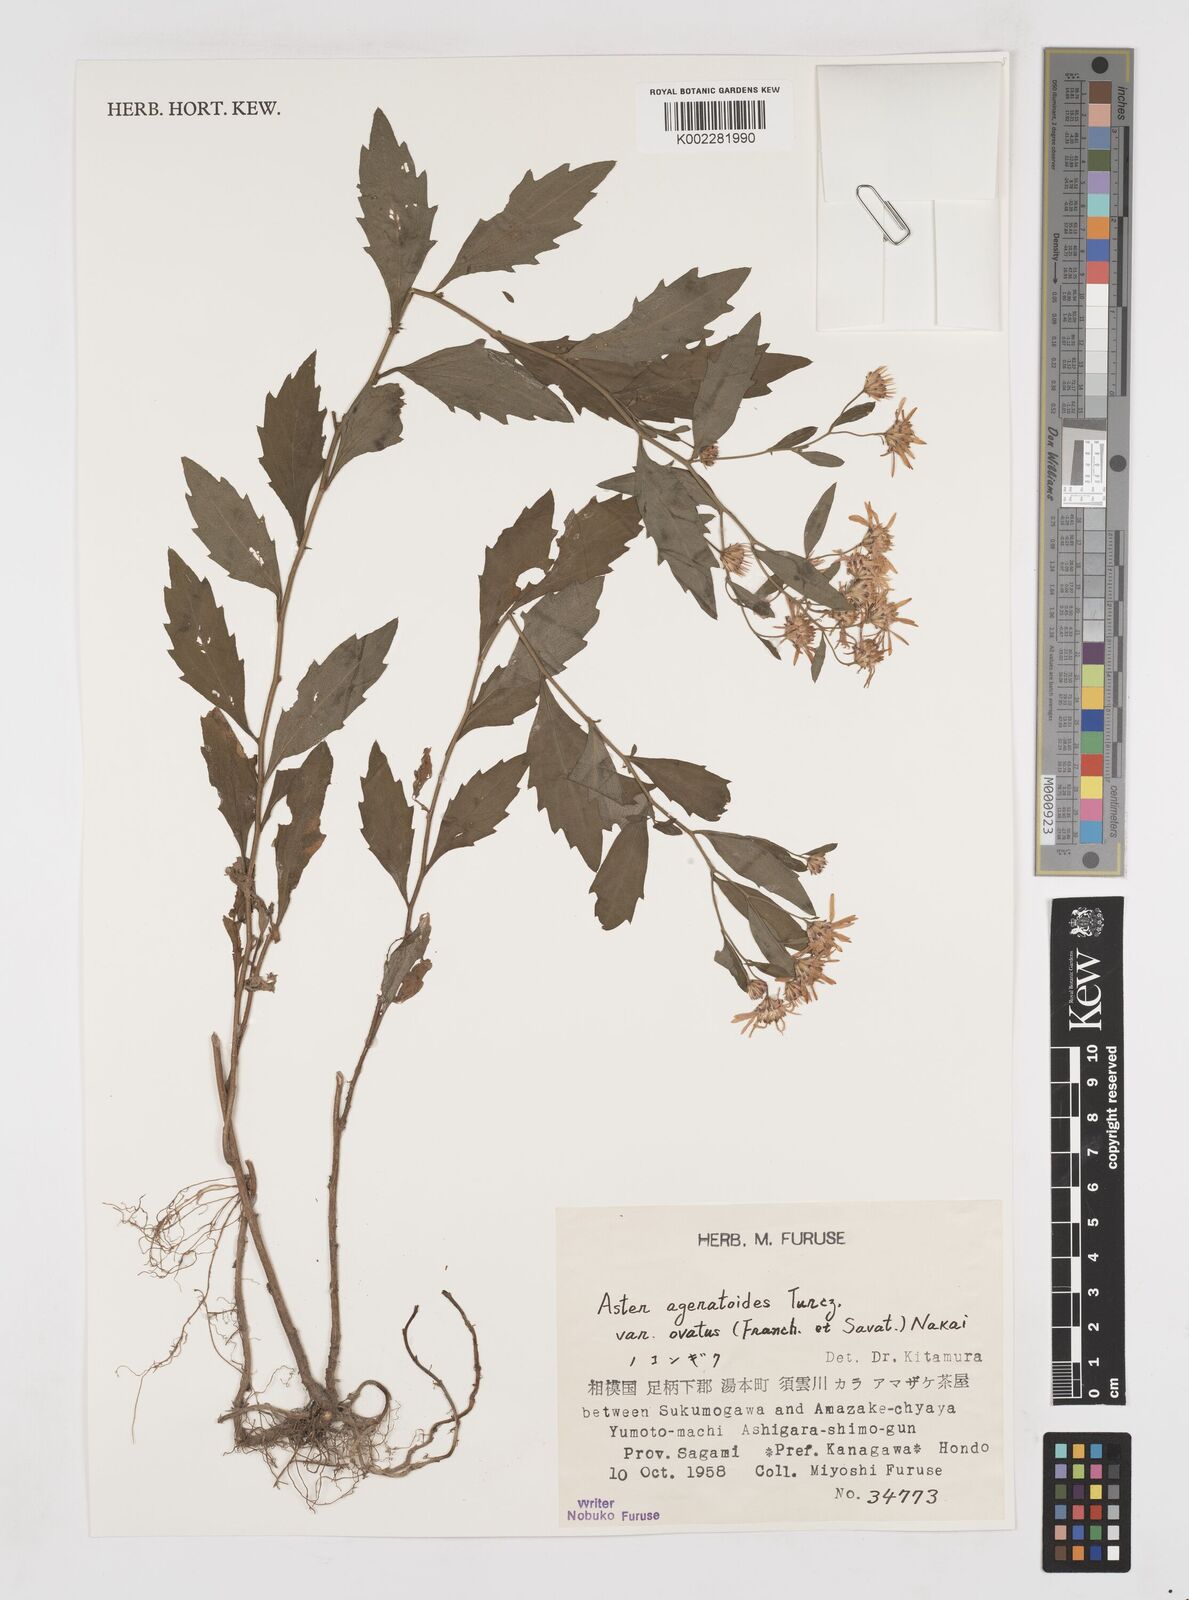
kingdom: Plantae
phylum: Tracheophyta
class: Magnoliopsida
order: Asterales
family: Asteraceae
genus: Galatella
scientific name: Galatella sedifolia
